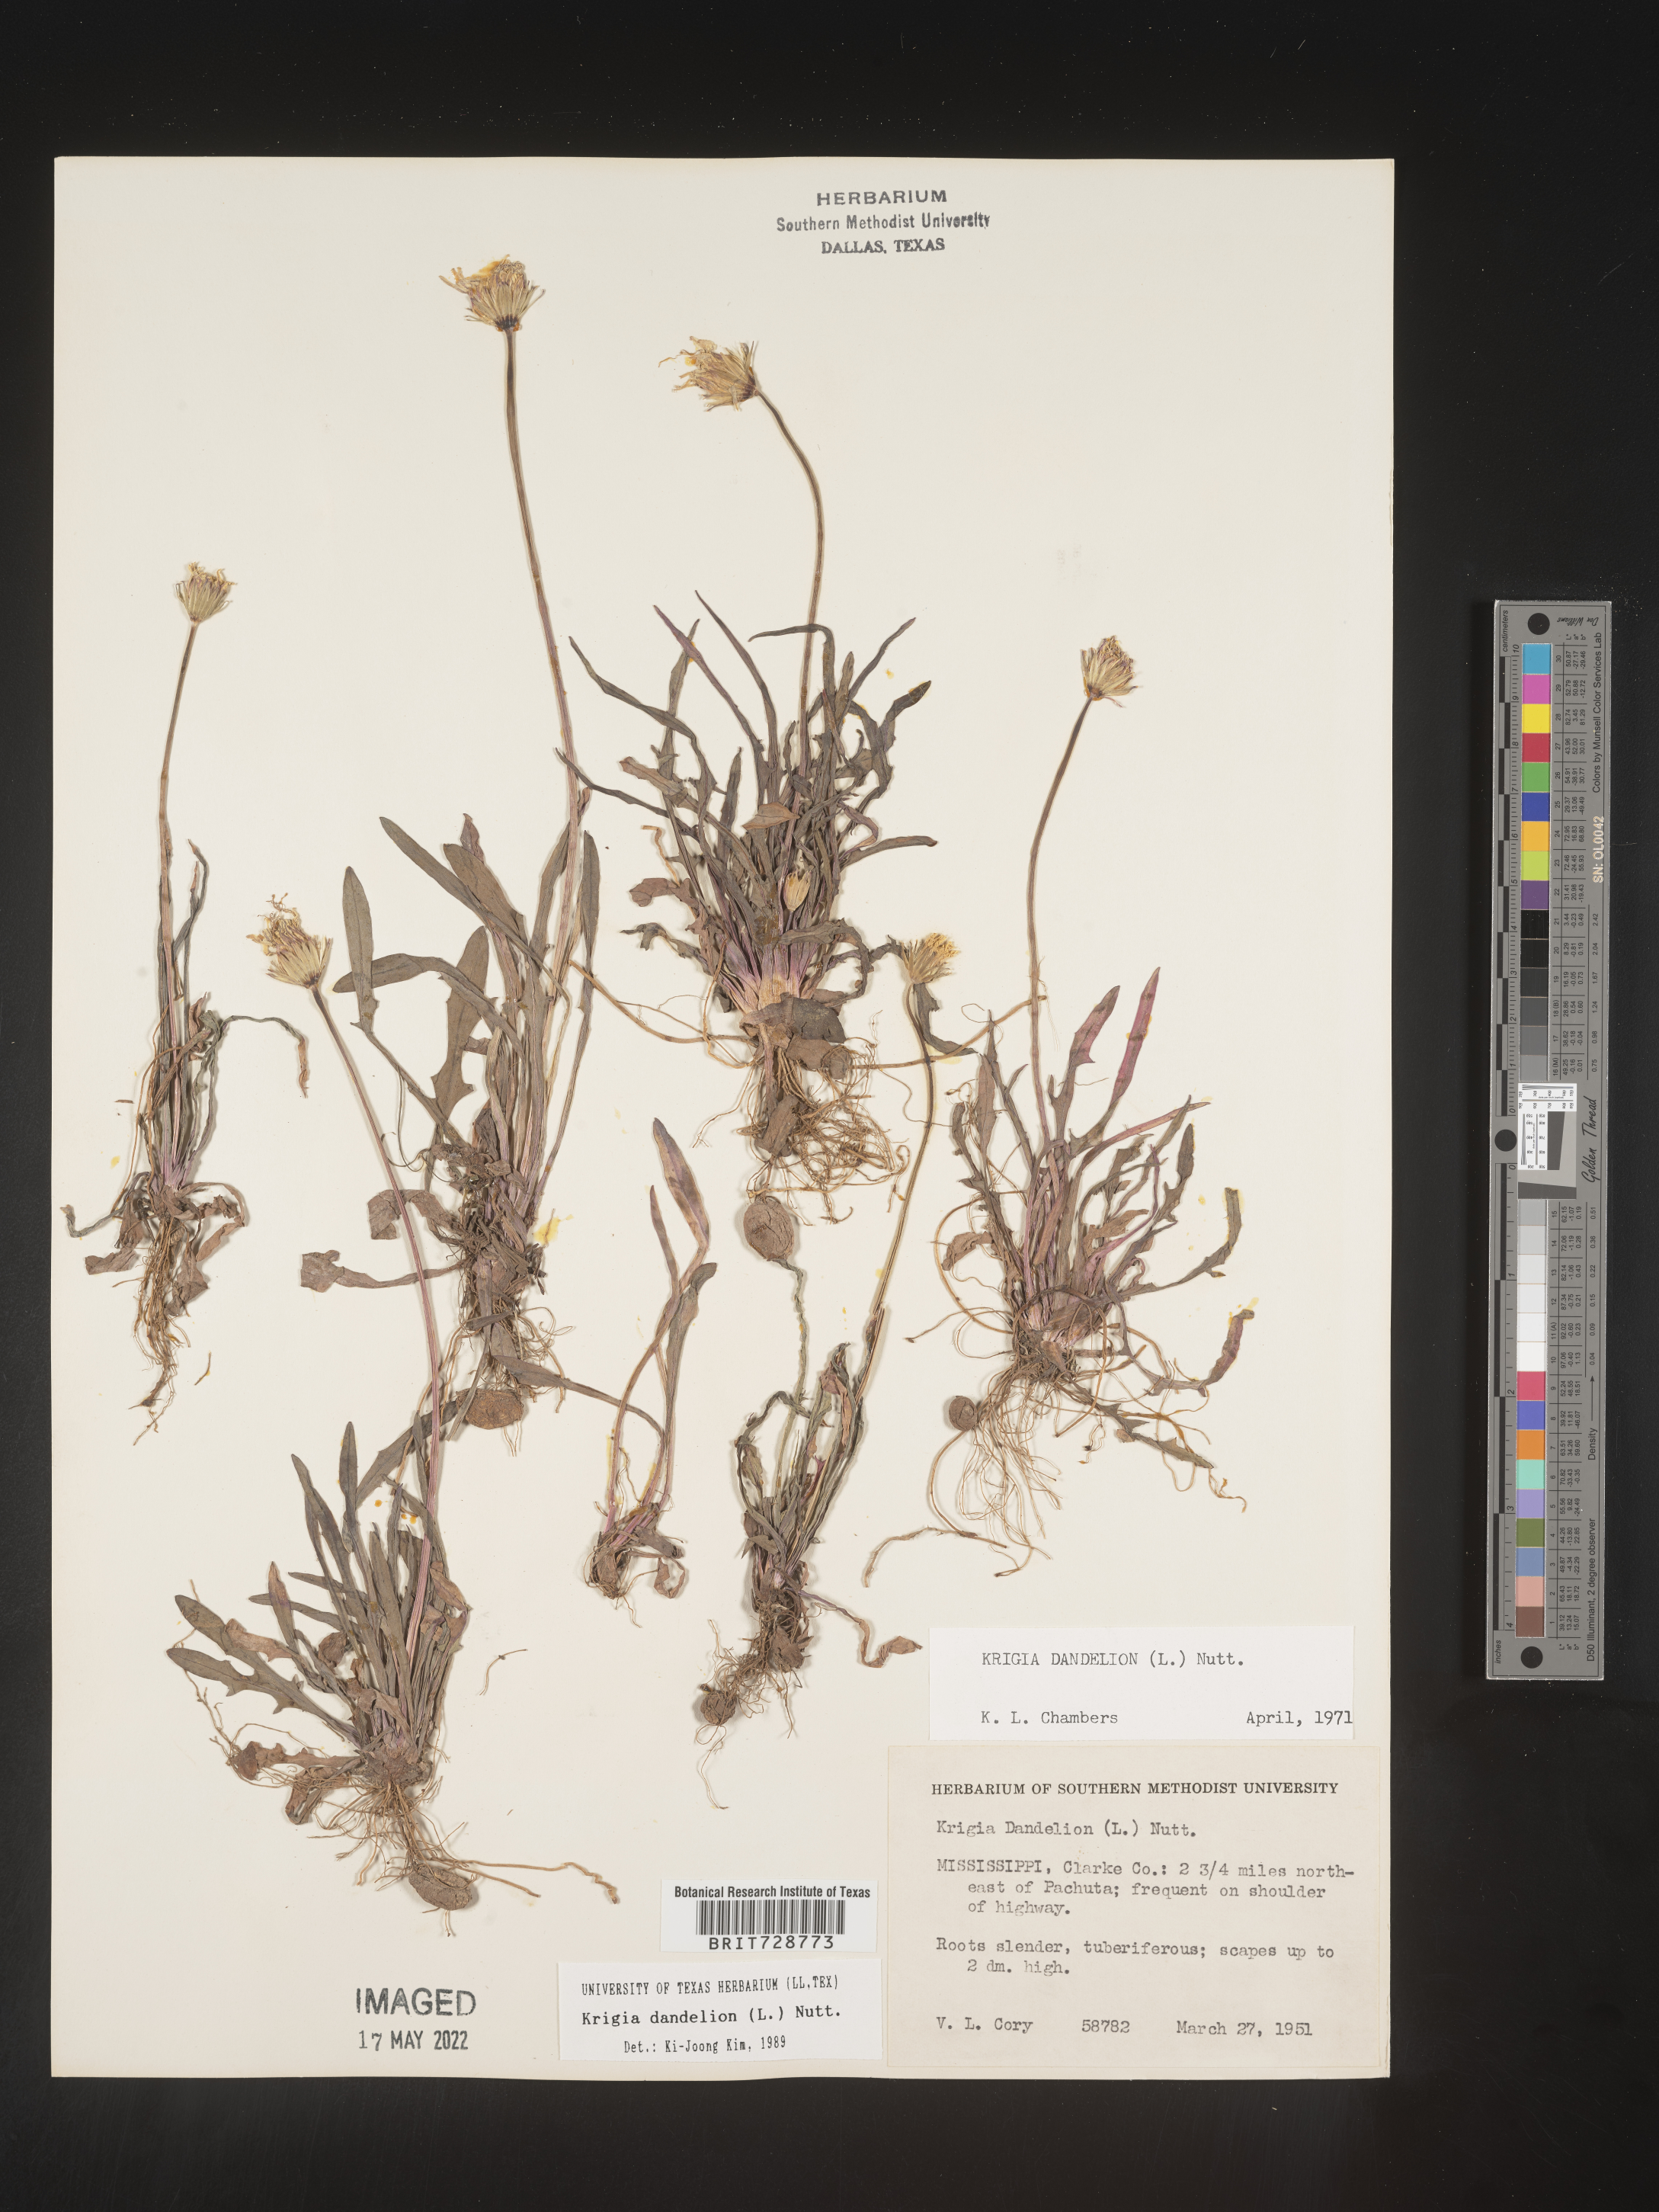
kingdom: Plantae
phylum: Tracheophyta
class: Magnoliopsida
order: Asterales
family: Asteraceae
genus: Krigia
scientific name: Krigia dandelion
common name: Colonial dwarf-dandelion
